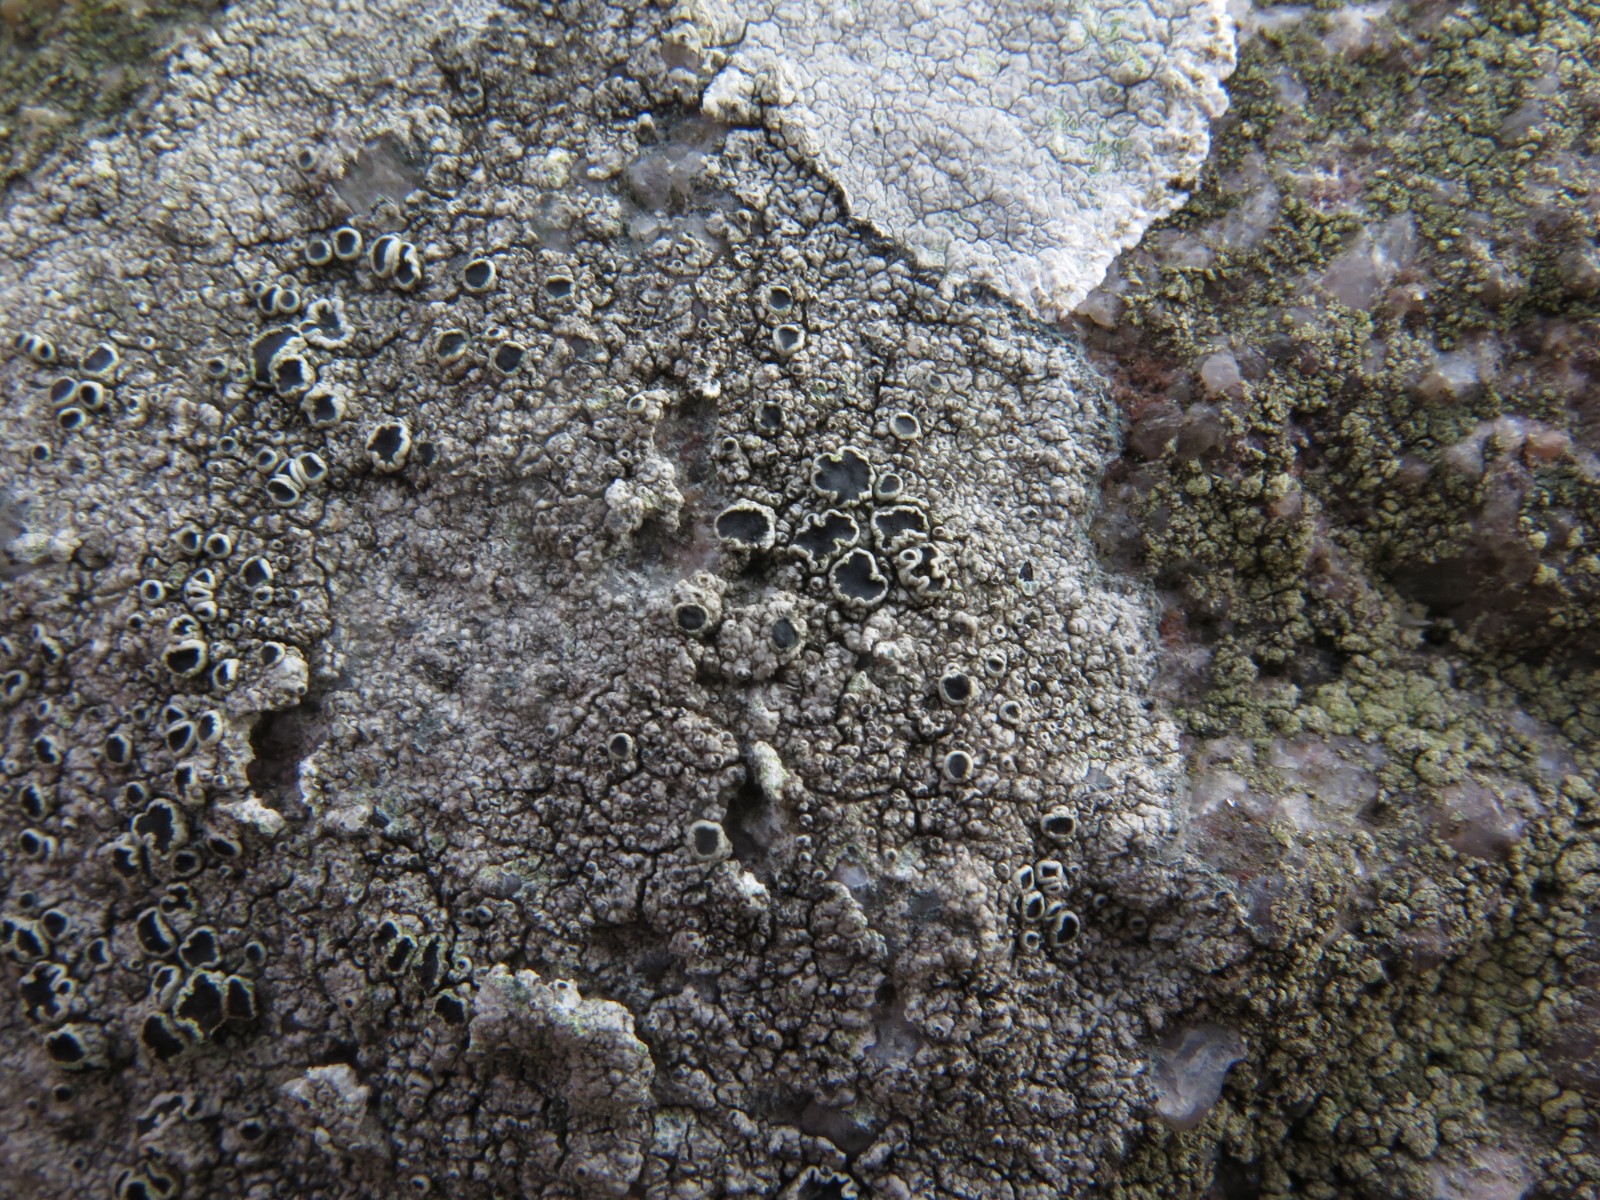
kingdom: Fungi
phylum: Ascomycota
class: Lecanoromycetes
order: Lecanorales
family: Tephromelataceae
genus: Tephromela
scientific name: Tephromela atra
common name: sortfrugtet kantskivelav
